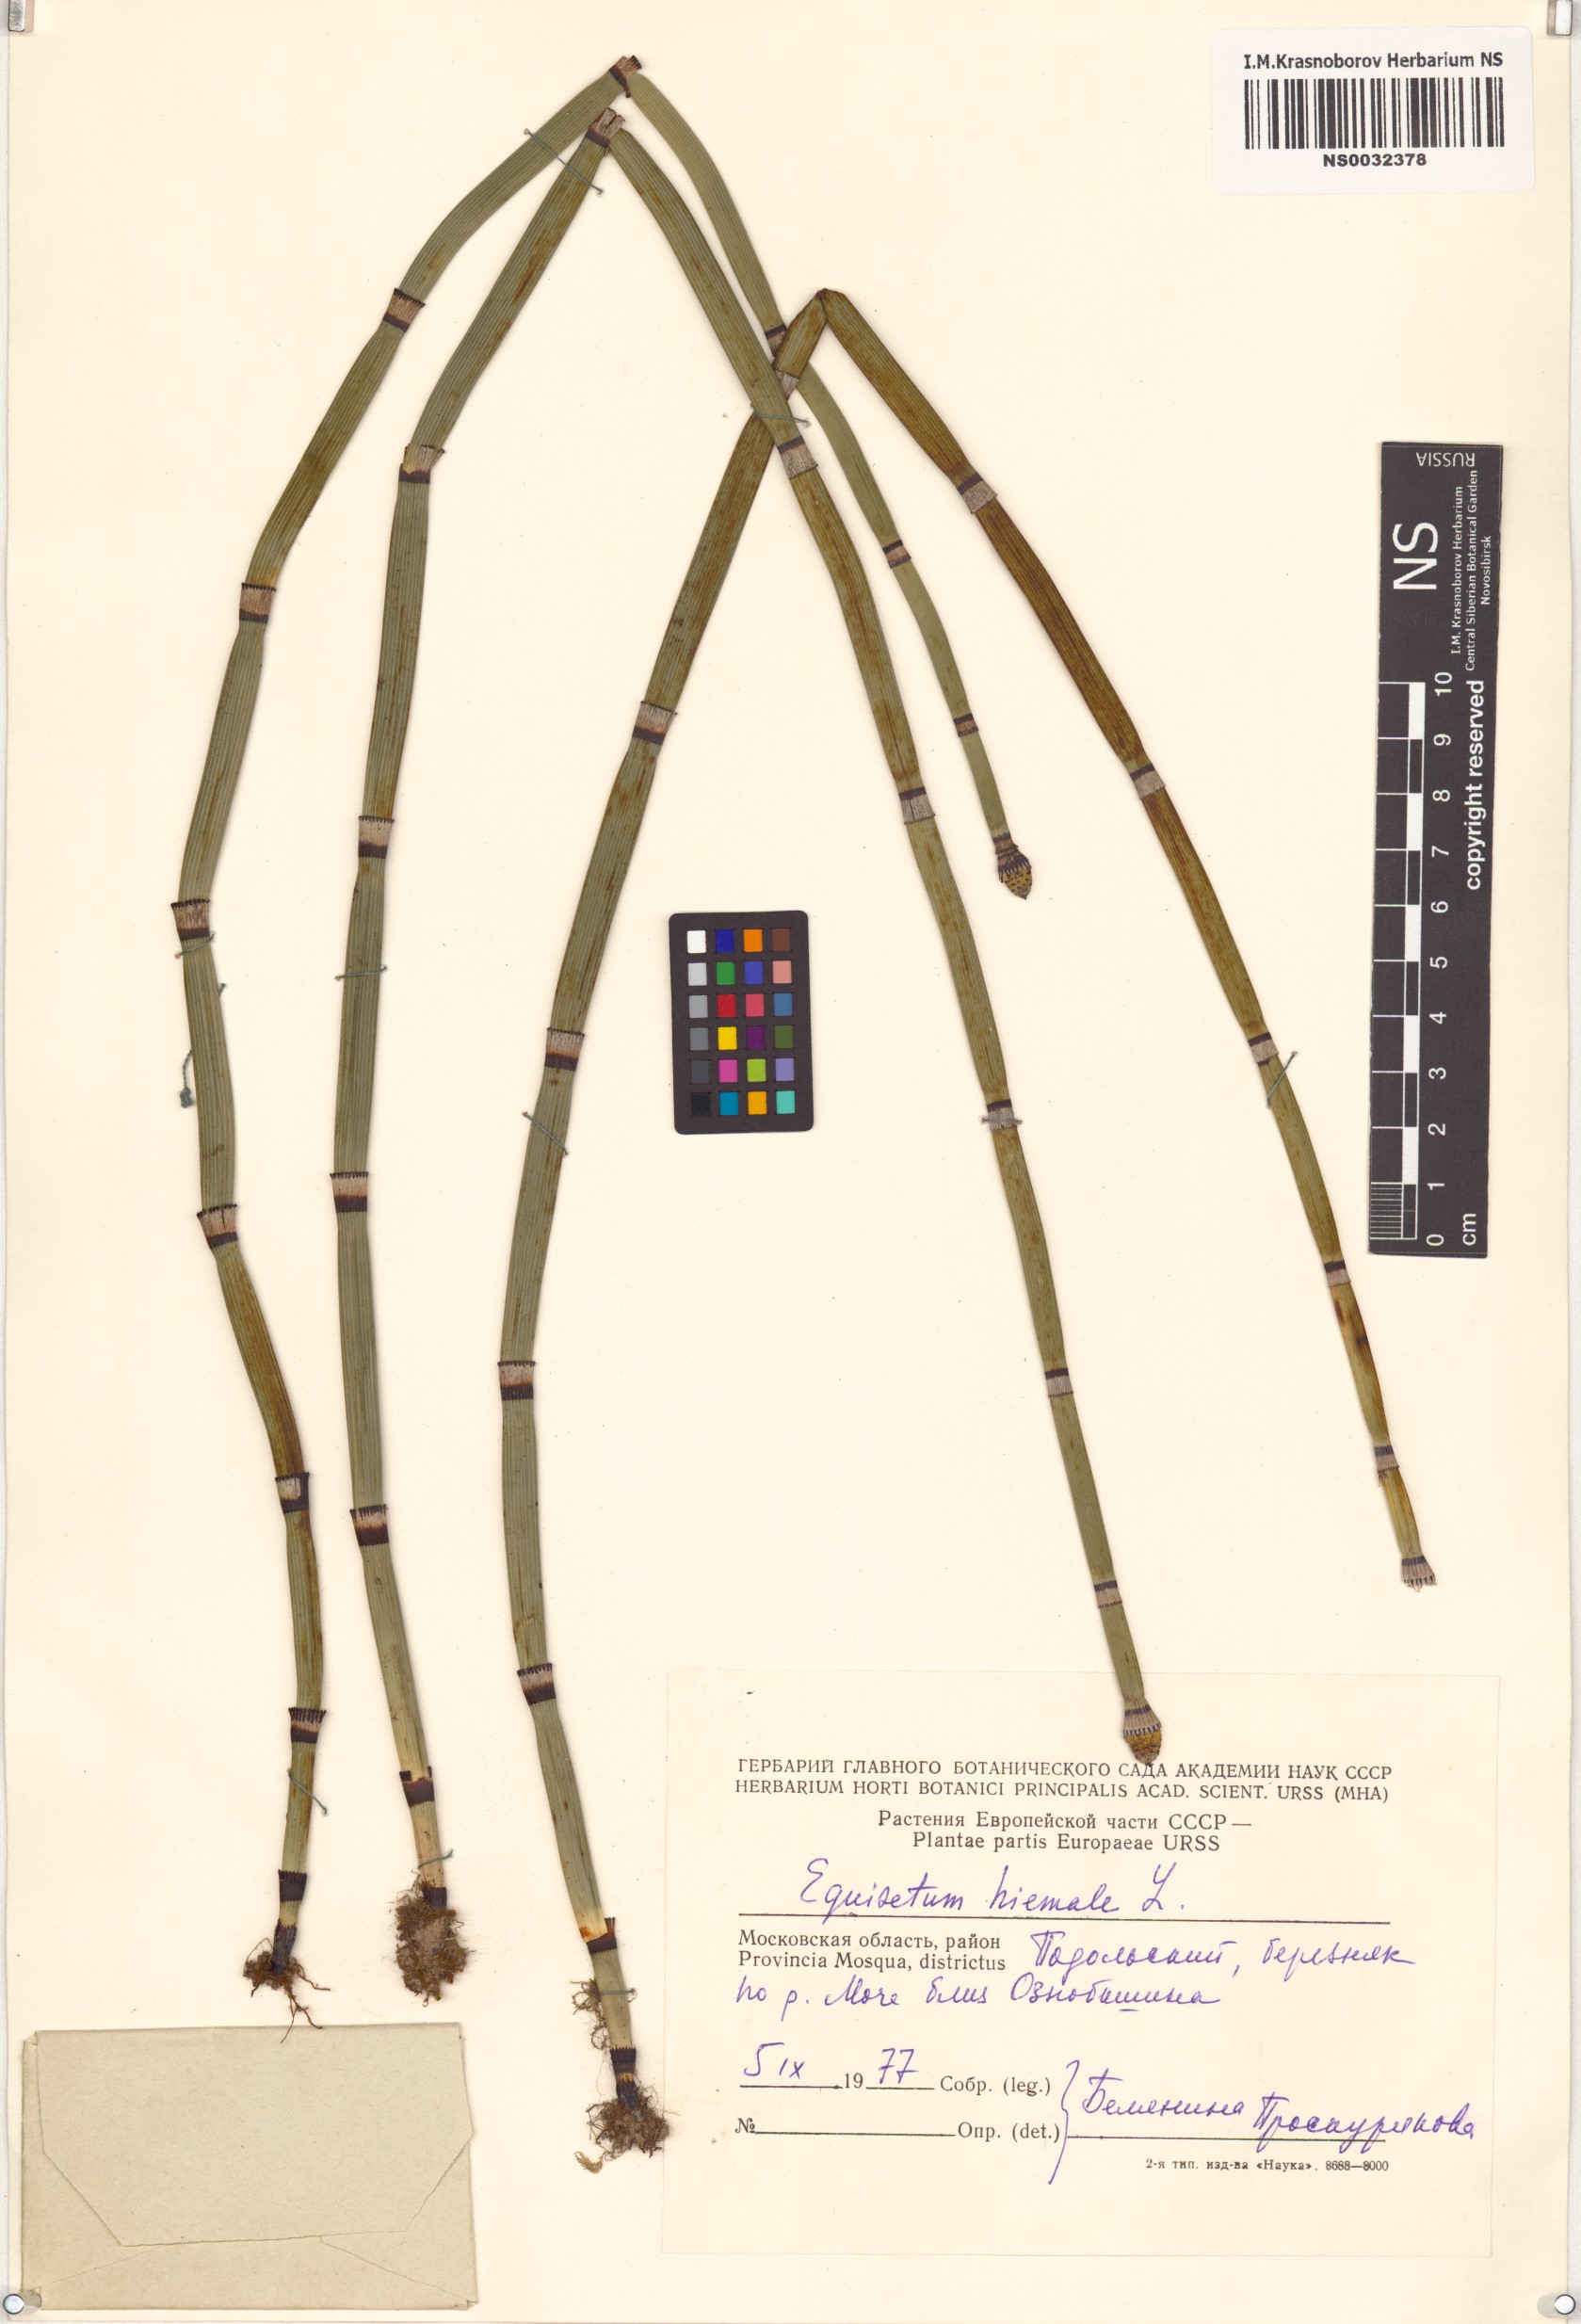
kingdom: Plantae
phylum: Tracheophyta
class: Polypodiopsida
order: Equisetales
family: Equisetaceae
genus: Equisetum
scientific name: Equisetum hyemale
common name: Rough horsetail
